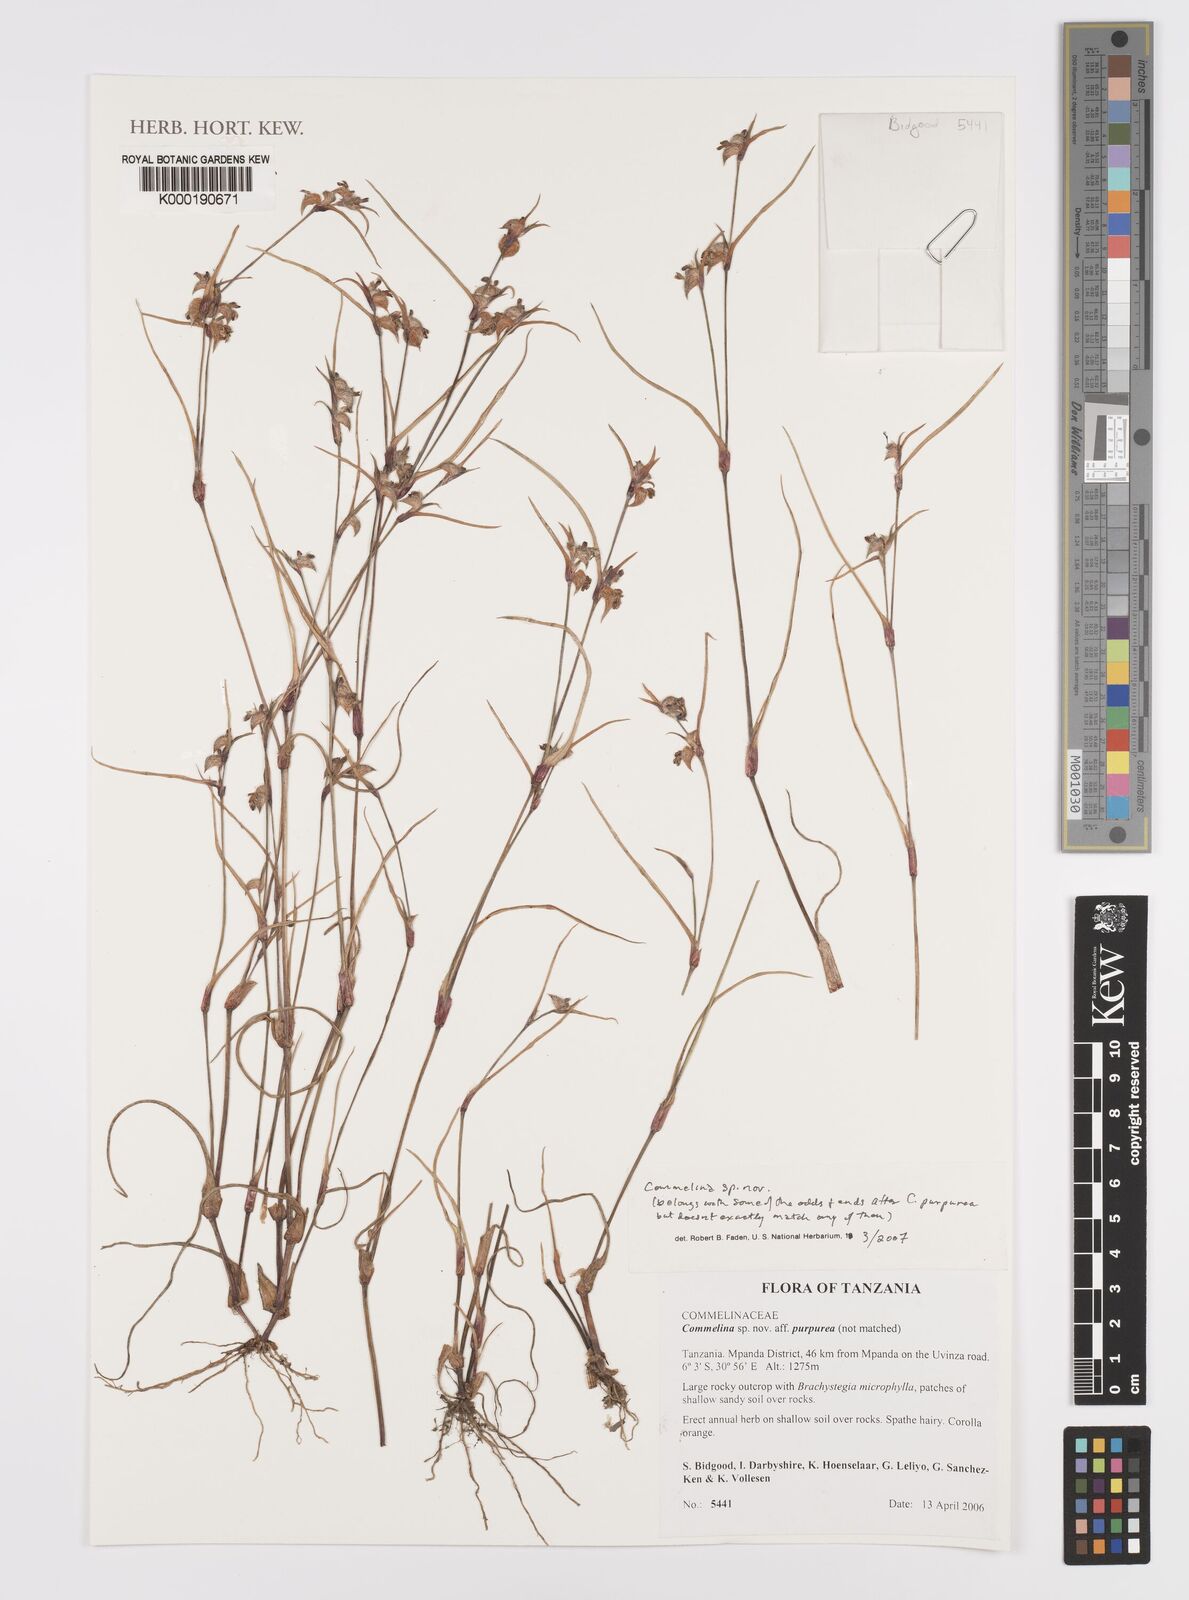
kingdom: Plantae
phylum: Tracheophyta
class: Liliopsida
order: Commelinales
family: Commelinaceae
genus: Commelina
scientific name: Commelina
